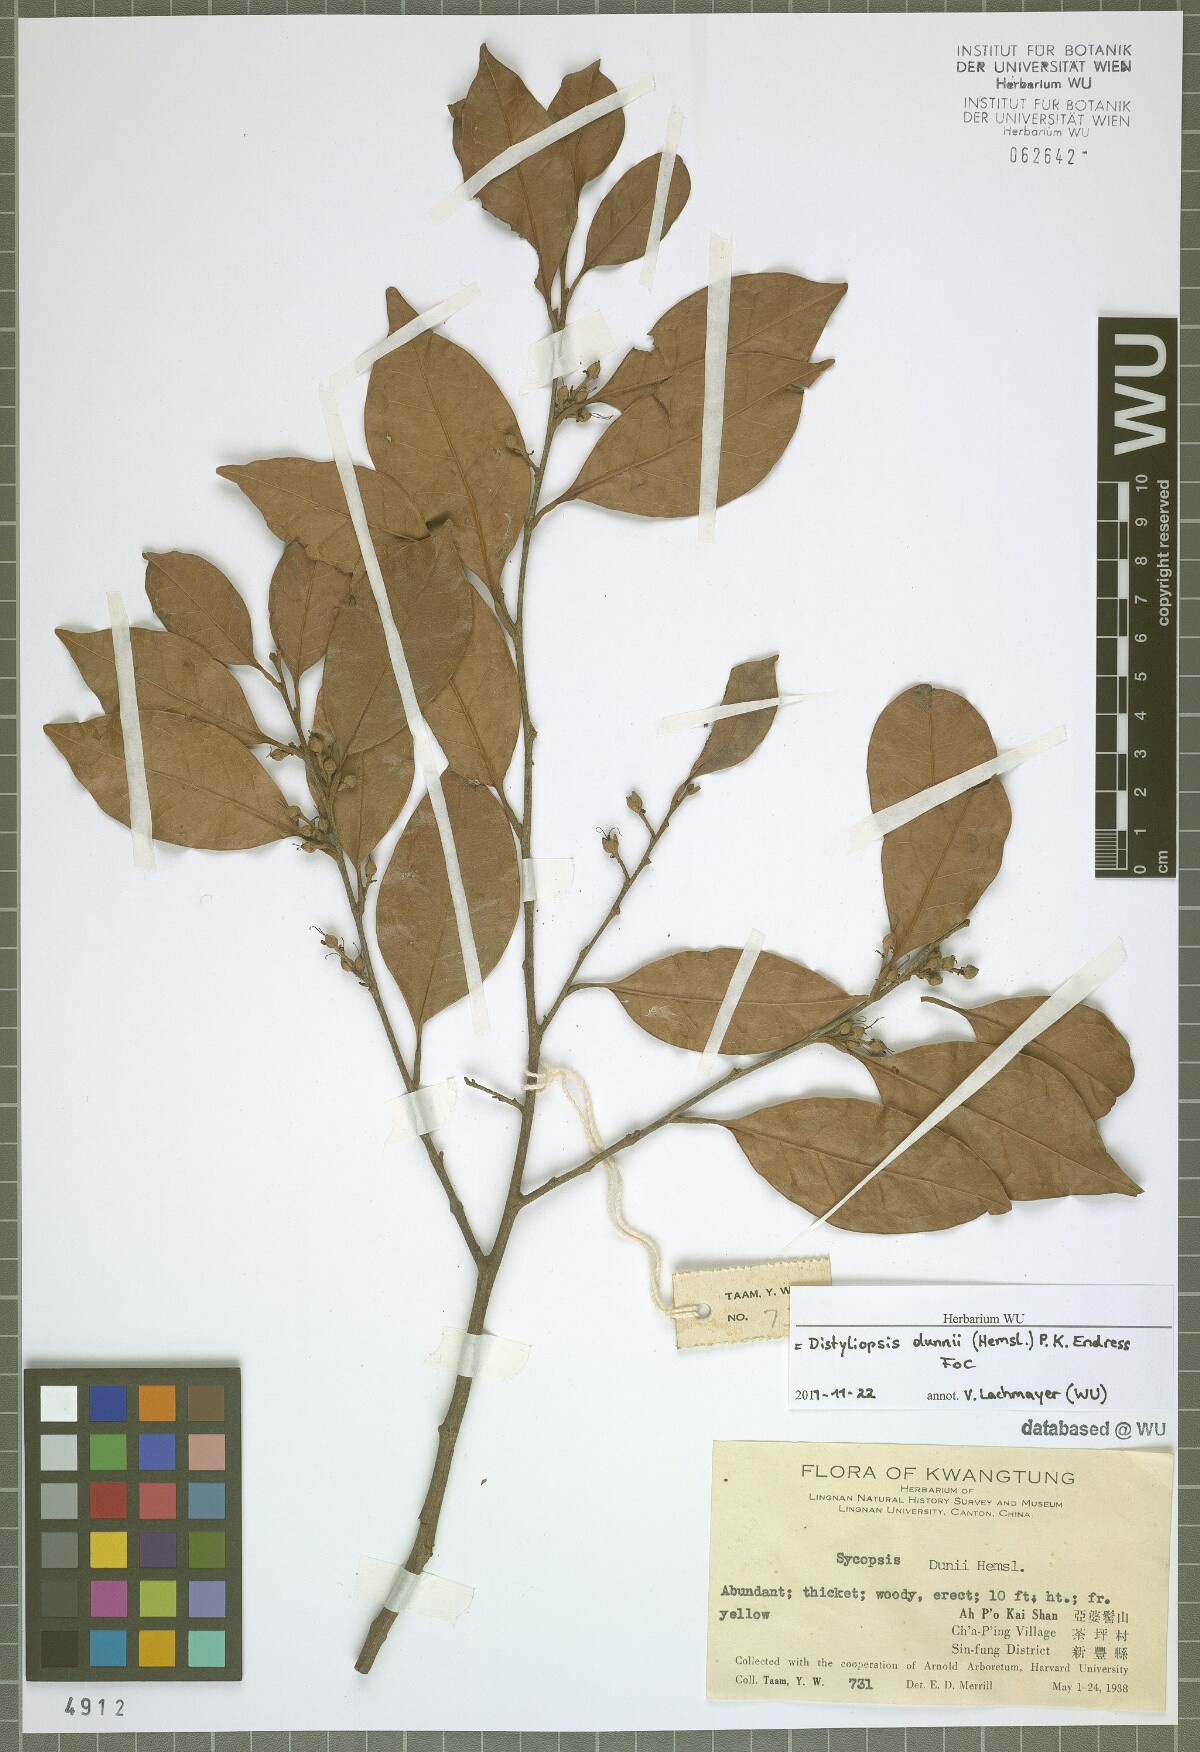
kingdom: Plantae
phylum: Tracheophyta
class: Magnoliopsida
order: Saxifragales
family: Hamamelidaceae
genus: Distyliopsis
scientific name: Distyliopsis dunnii
